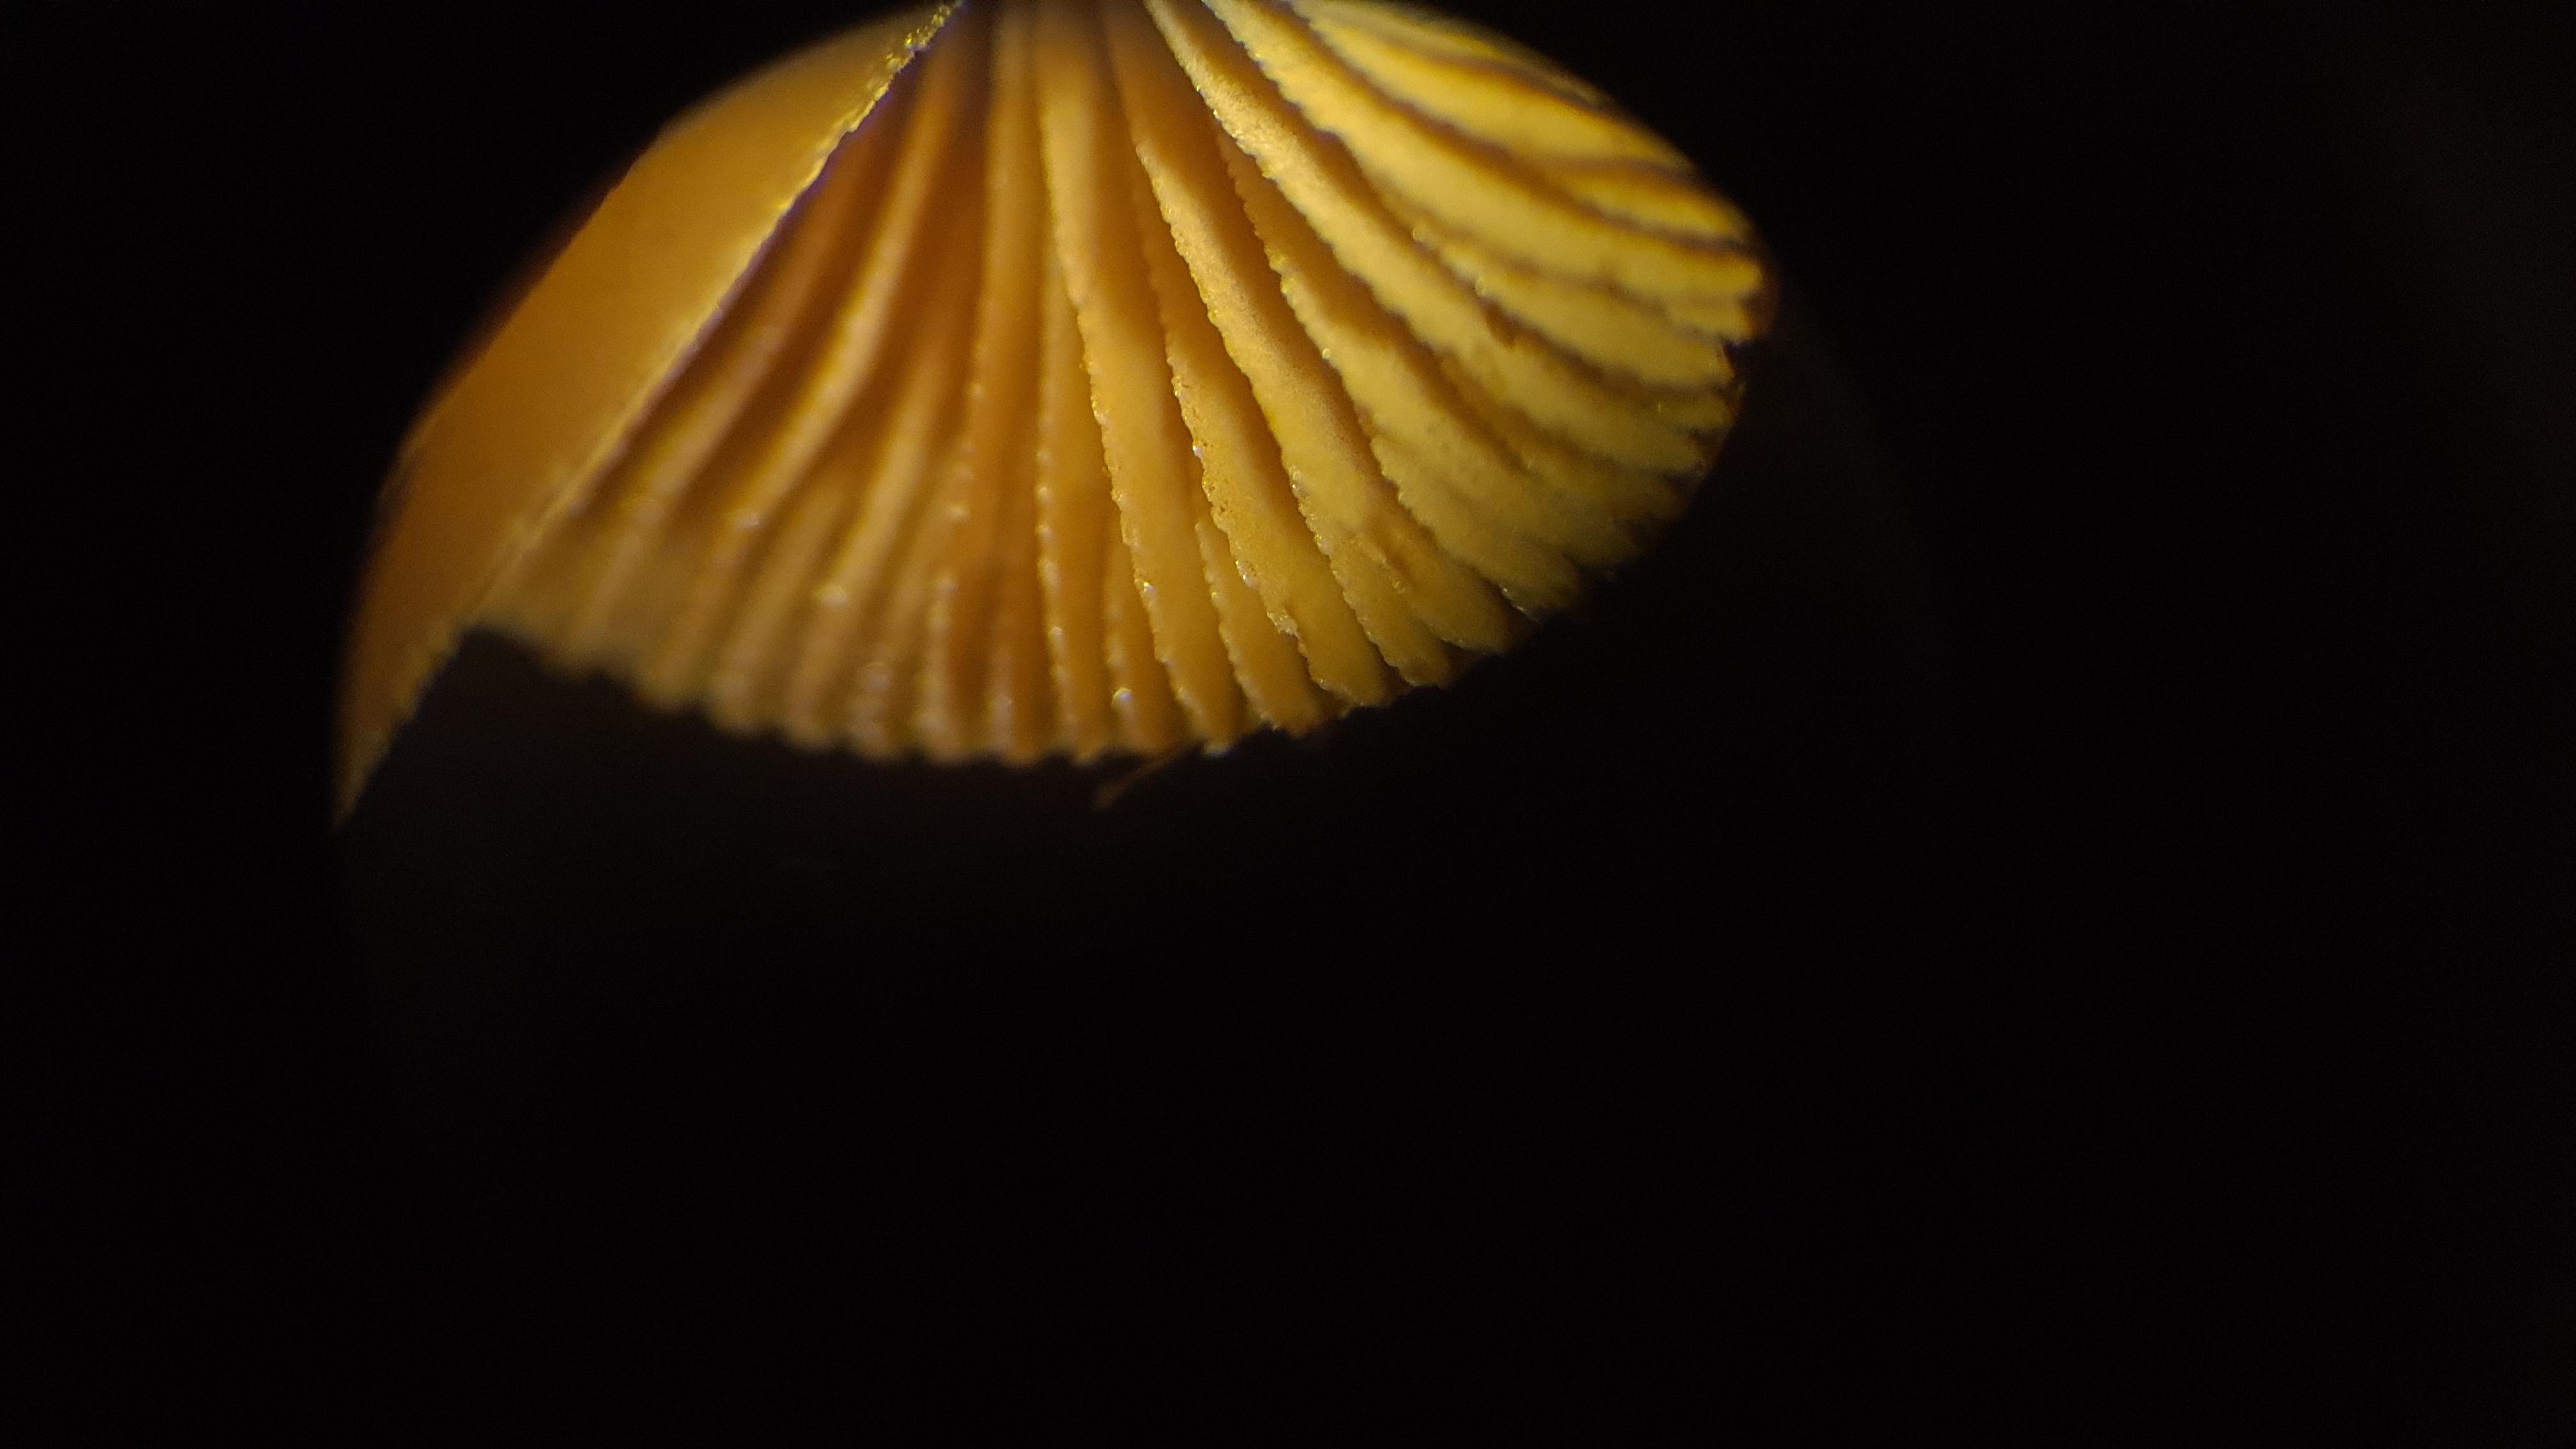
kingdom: Fungi
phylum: Basidiomycota
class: Agaricomycetes
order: Agaricales
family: Bolbitiaceae
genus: Conocybe
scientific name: Conocybe
